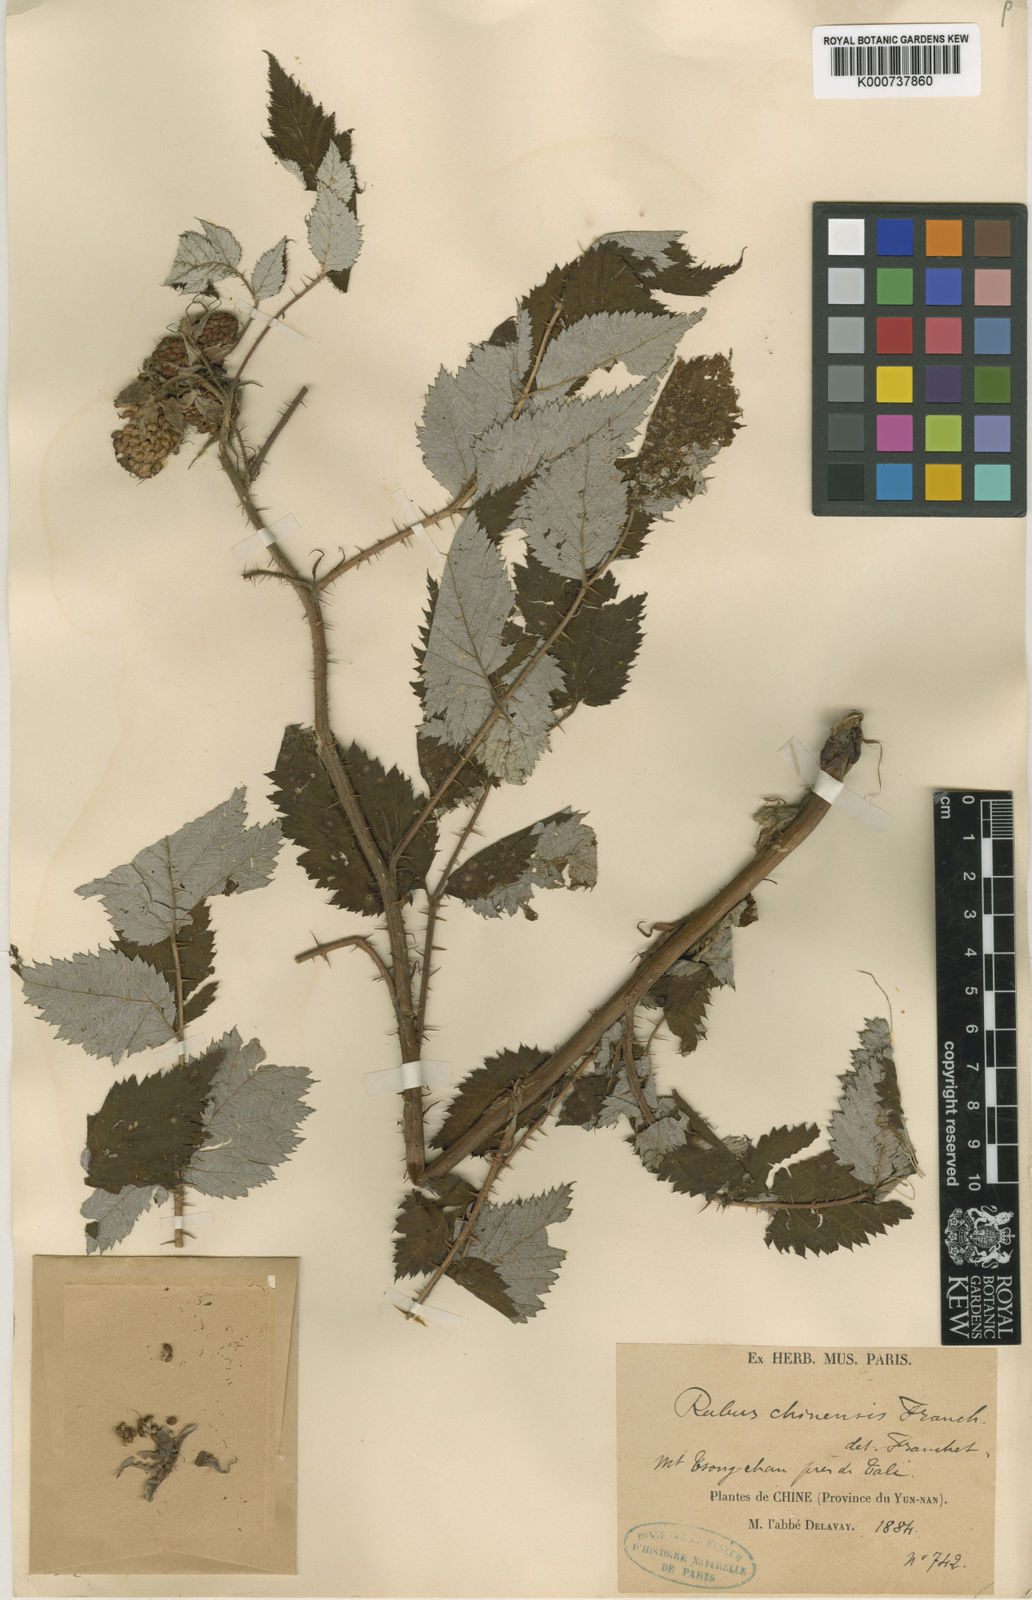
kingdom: Plantae
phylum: Tracheophyta
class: Magnoliopsida
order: Rosales
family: Rosaceae
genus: Rubus
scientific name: Rubus idaeopsis
